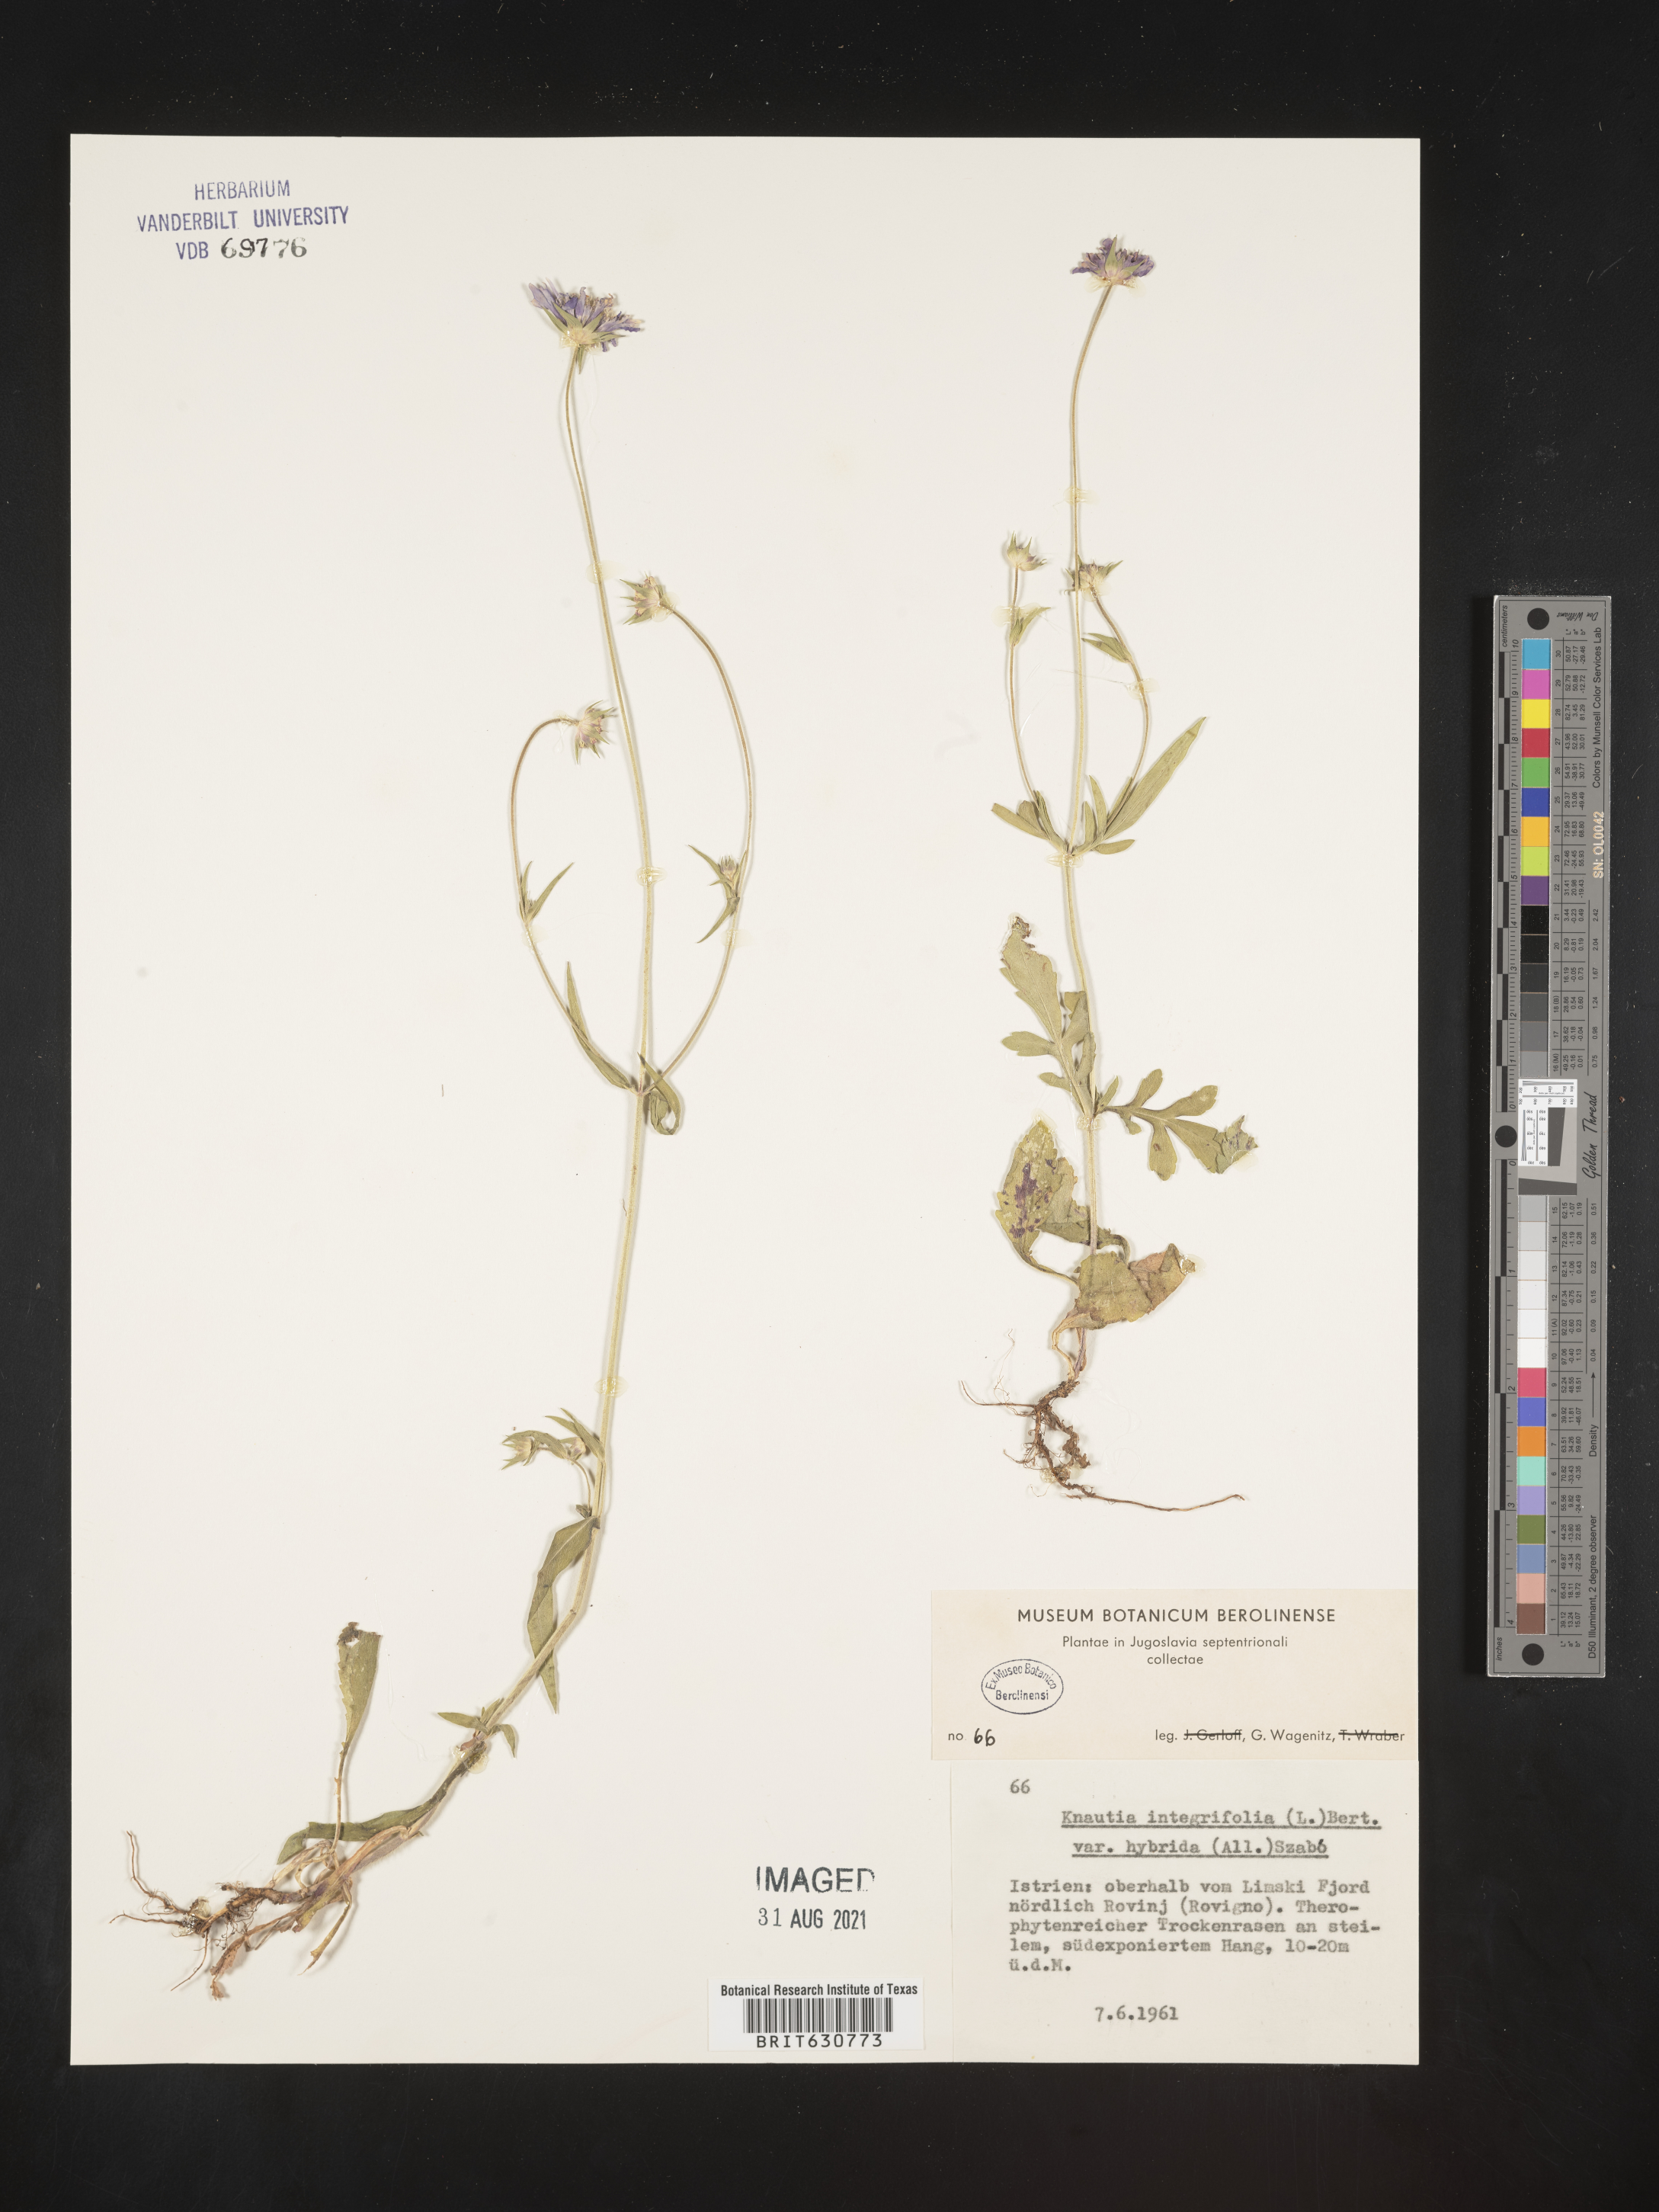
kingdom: Plantae
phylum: Tracheophyta
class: Magnoliopsida
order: Dipsacales
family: Caprifoliaceae
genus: Knautia
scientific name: Knautia integrifolia
